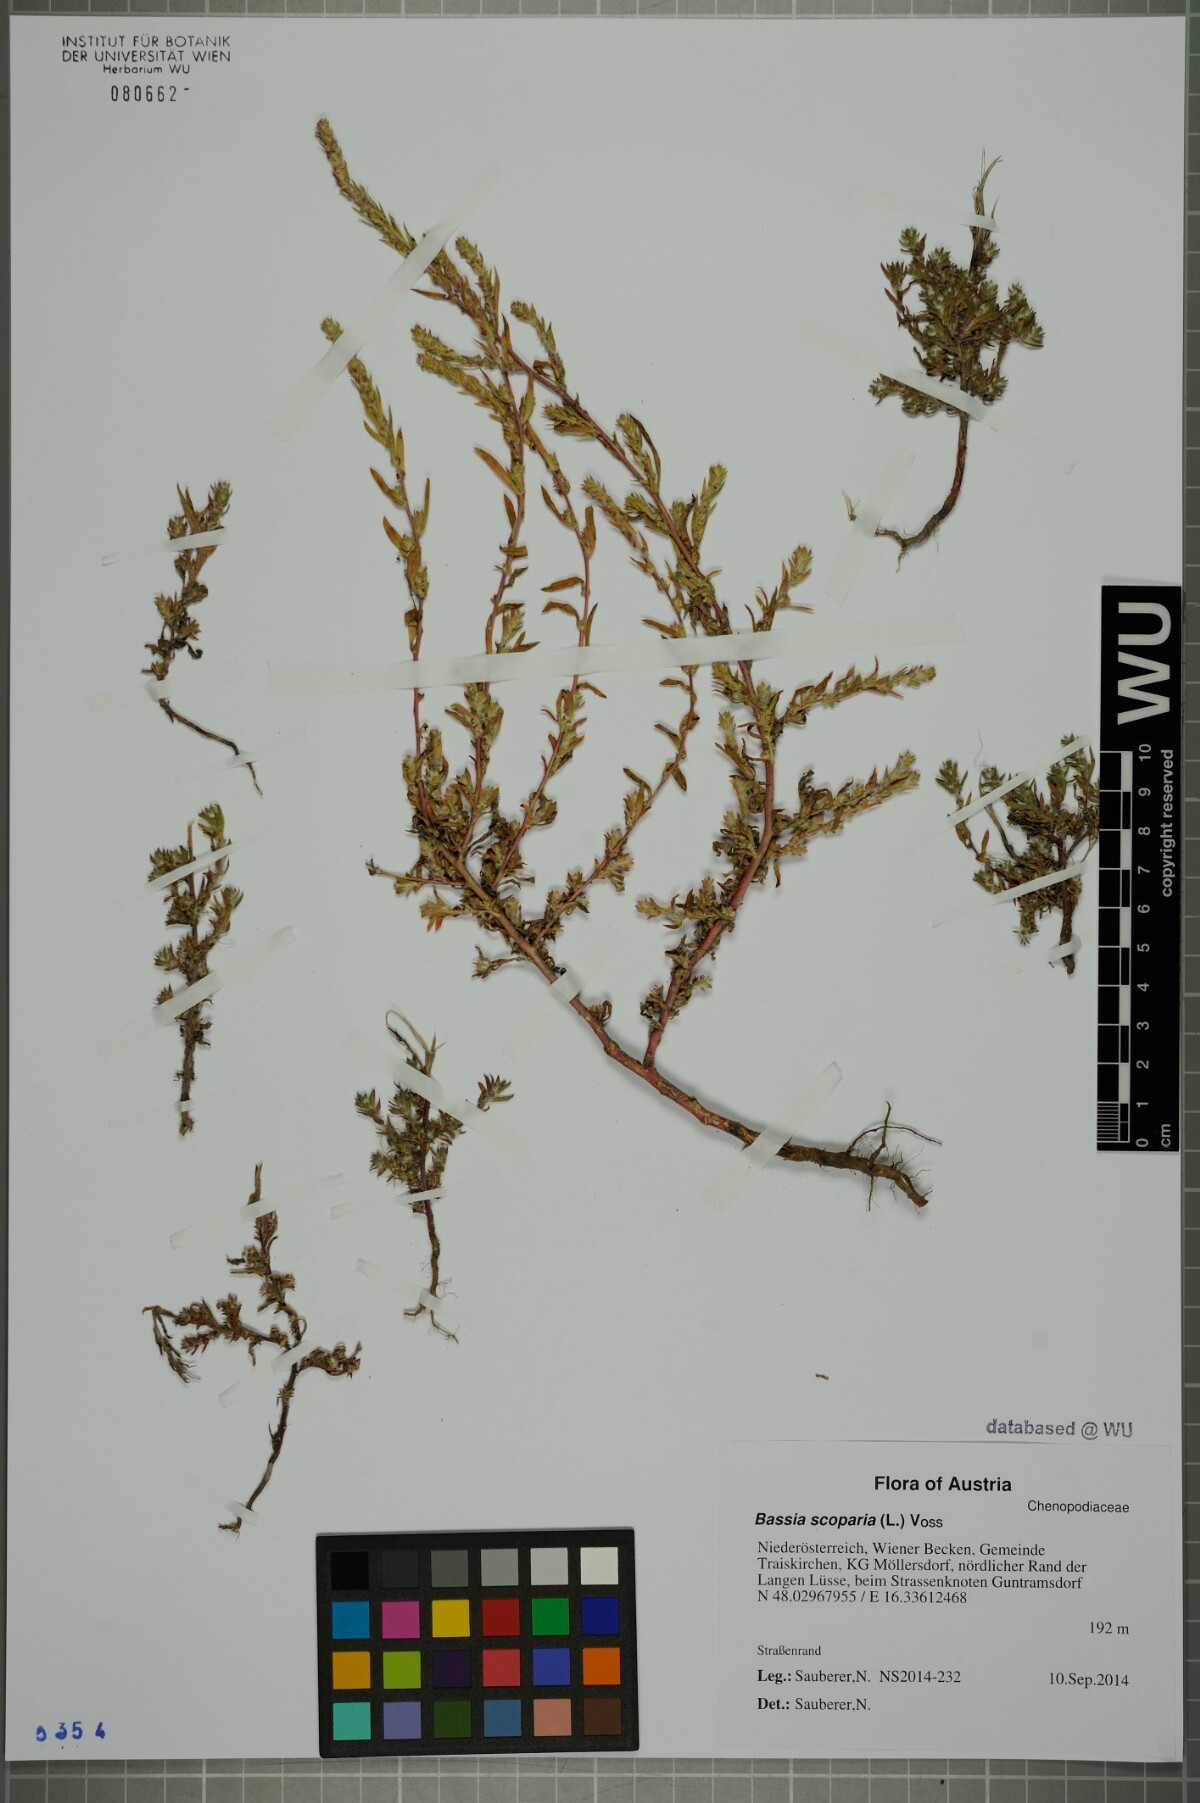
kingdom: Plantae
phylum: Tracheophyta
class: Magnoliopsida
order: Caryophyllales
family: Amaranthaceae
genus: Bassia
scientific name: Bassia scoparia
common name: Belvedere
